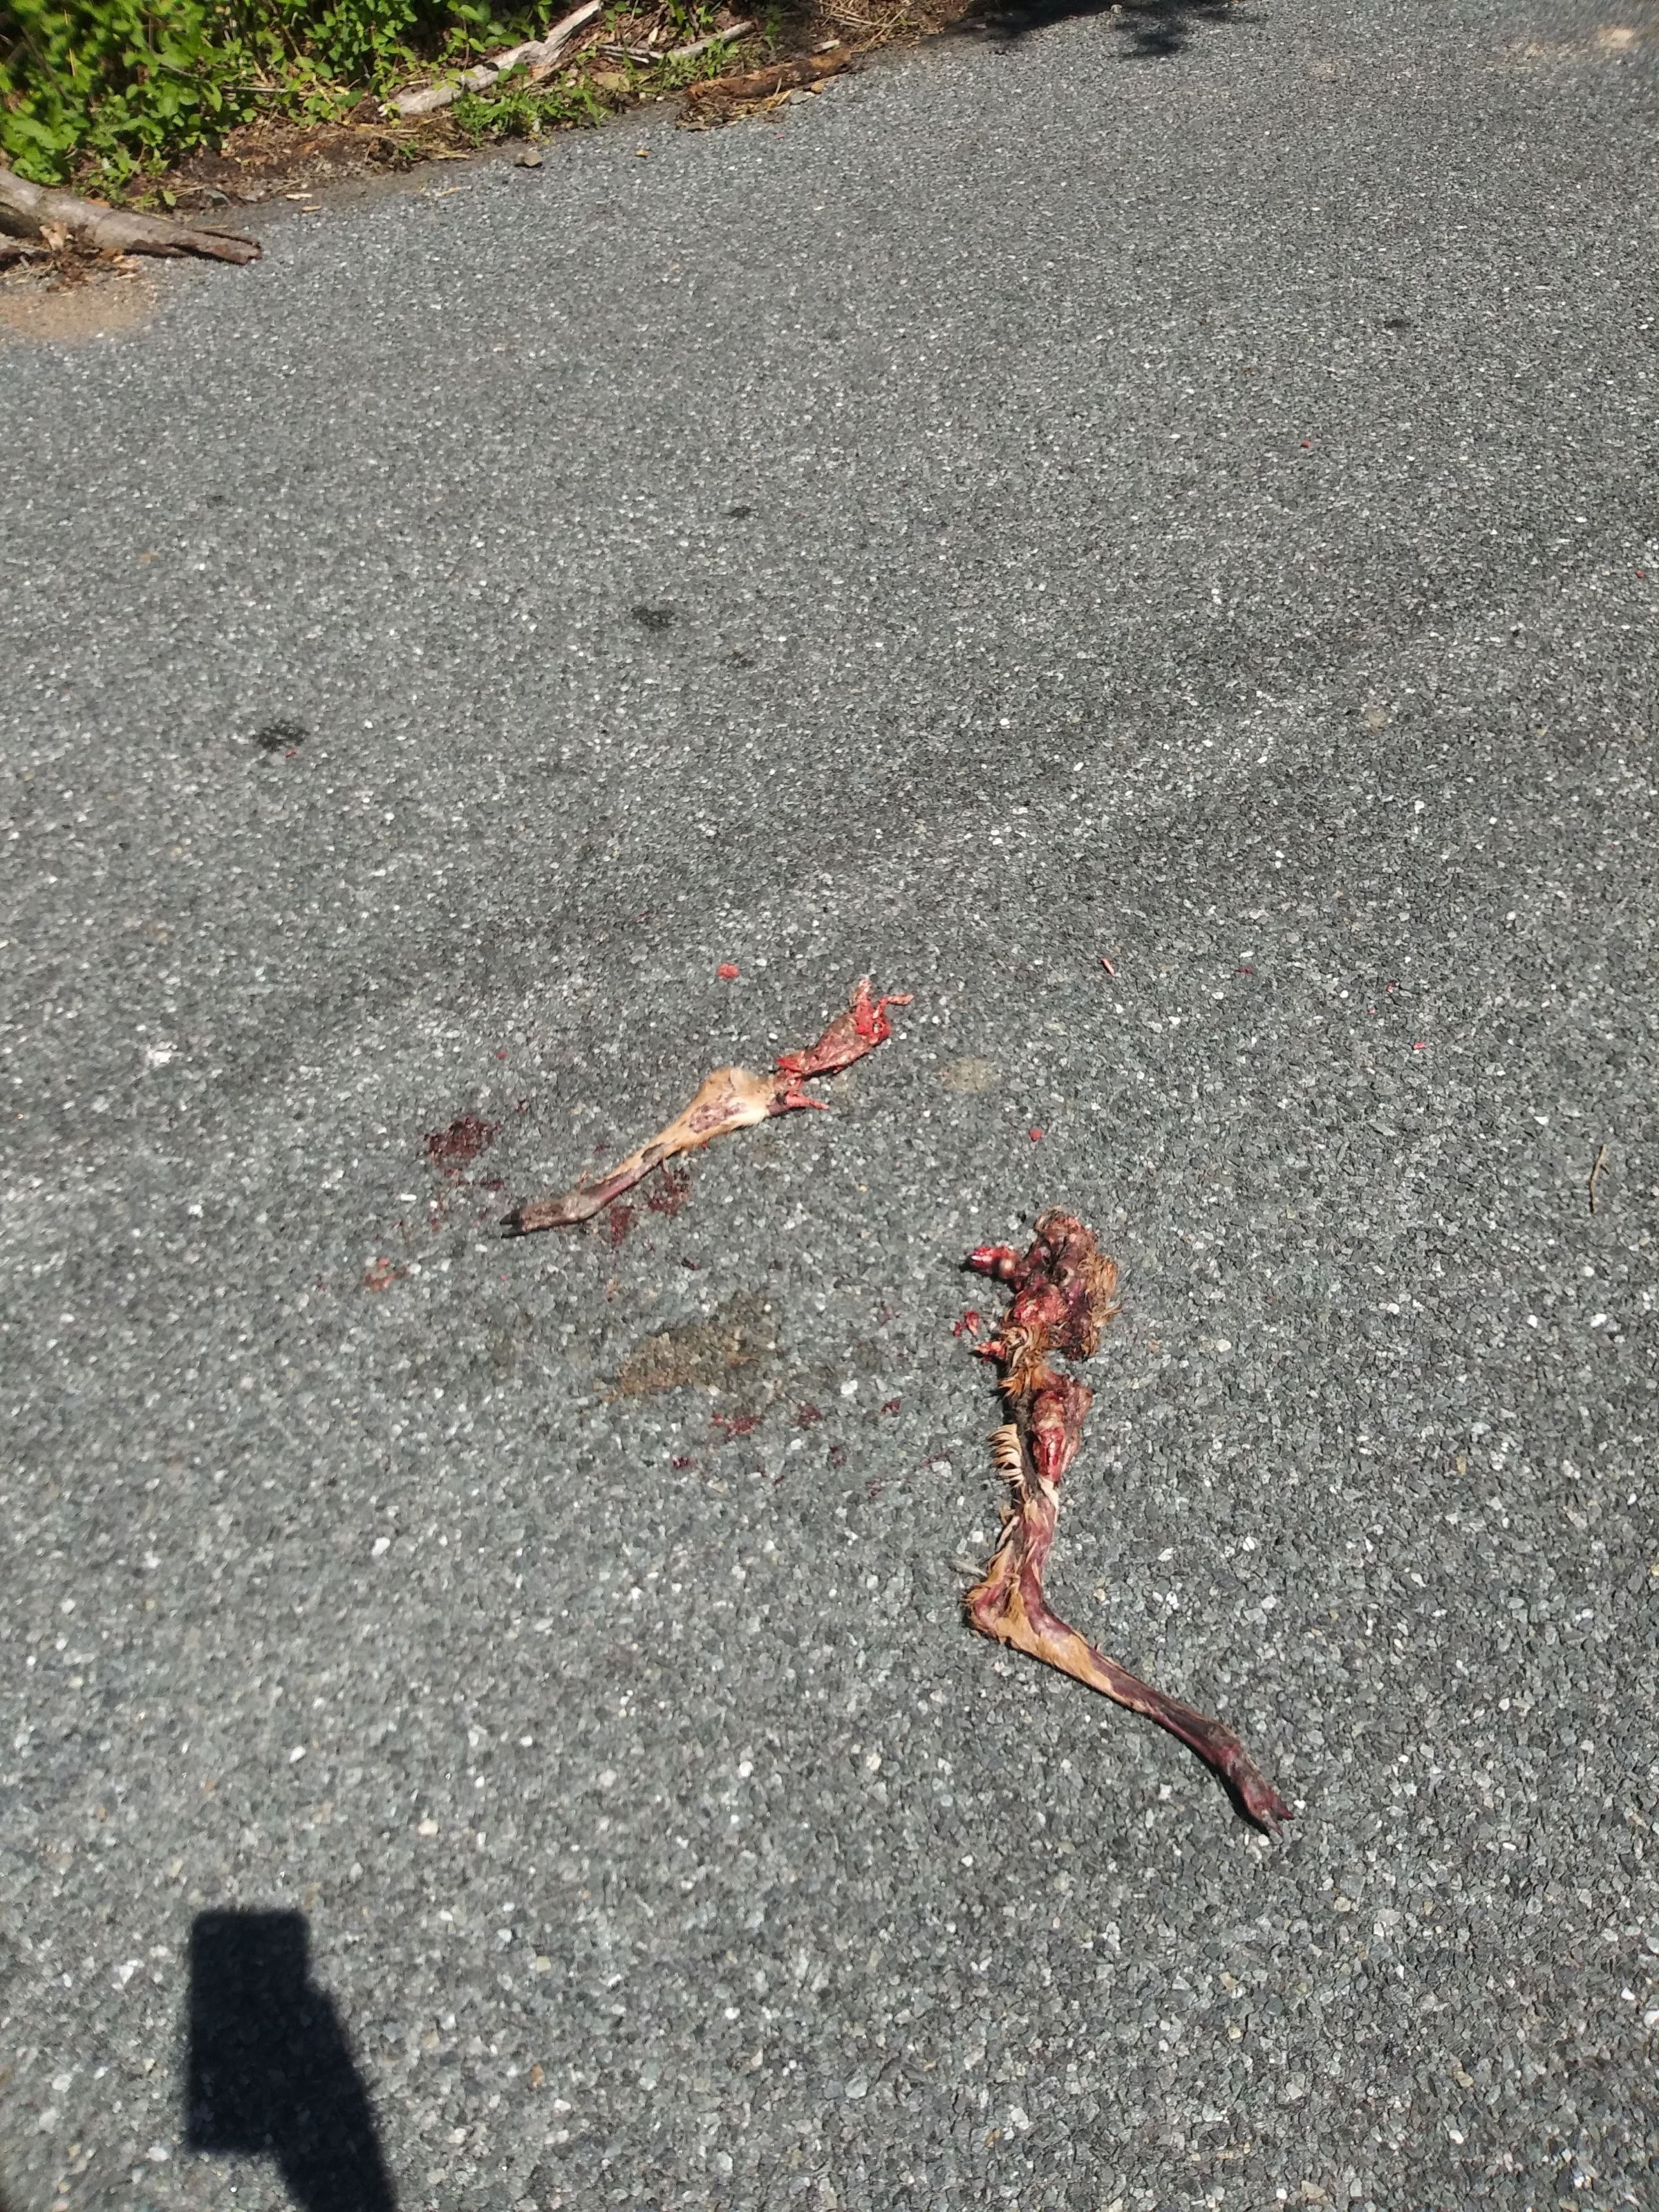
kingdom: Animalia
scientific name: Animalia
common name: NA
